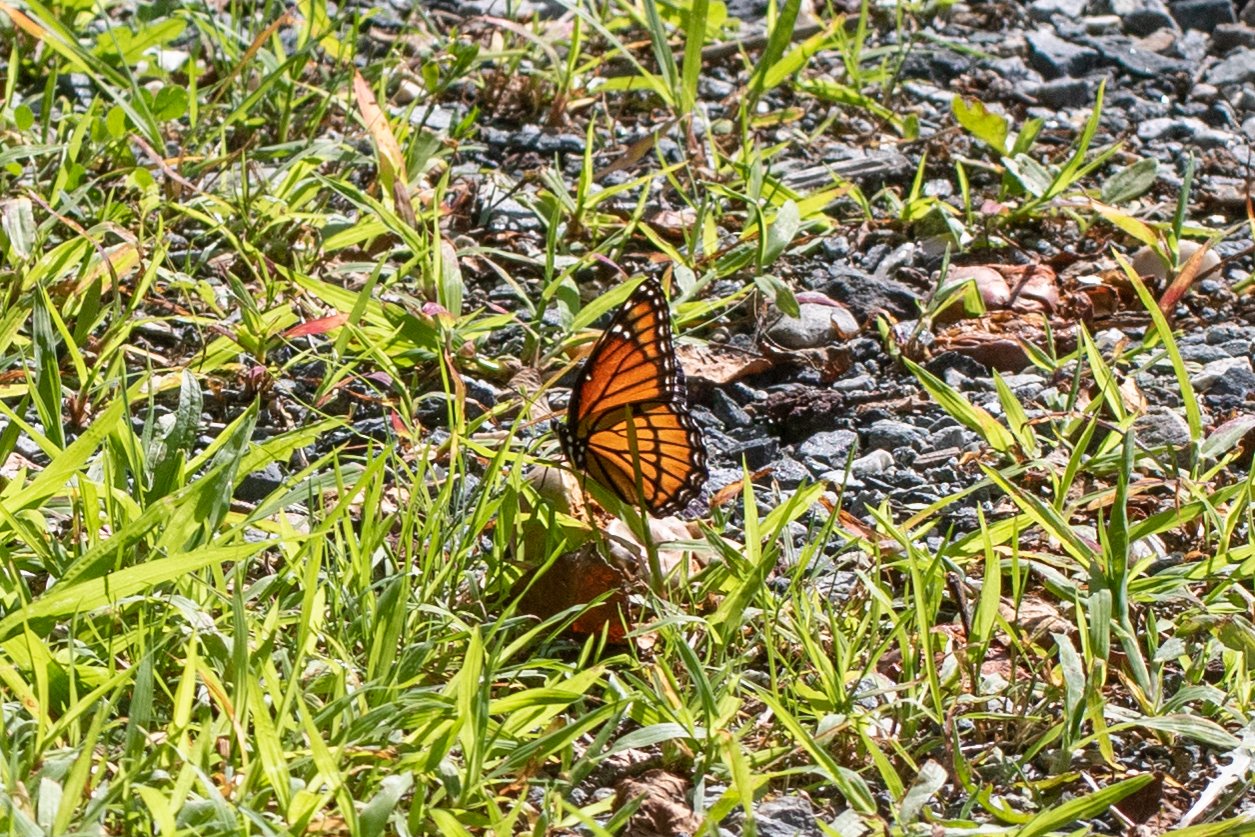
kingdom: Animalia
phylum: Arthropoda
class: Insecta
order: Lepidoptera
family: Nymphalidae
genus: Limenitis
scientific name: Limenitis archippus
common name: Viceroy
